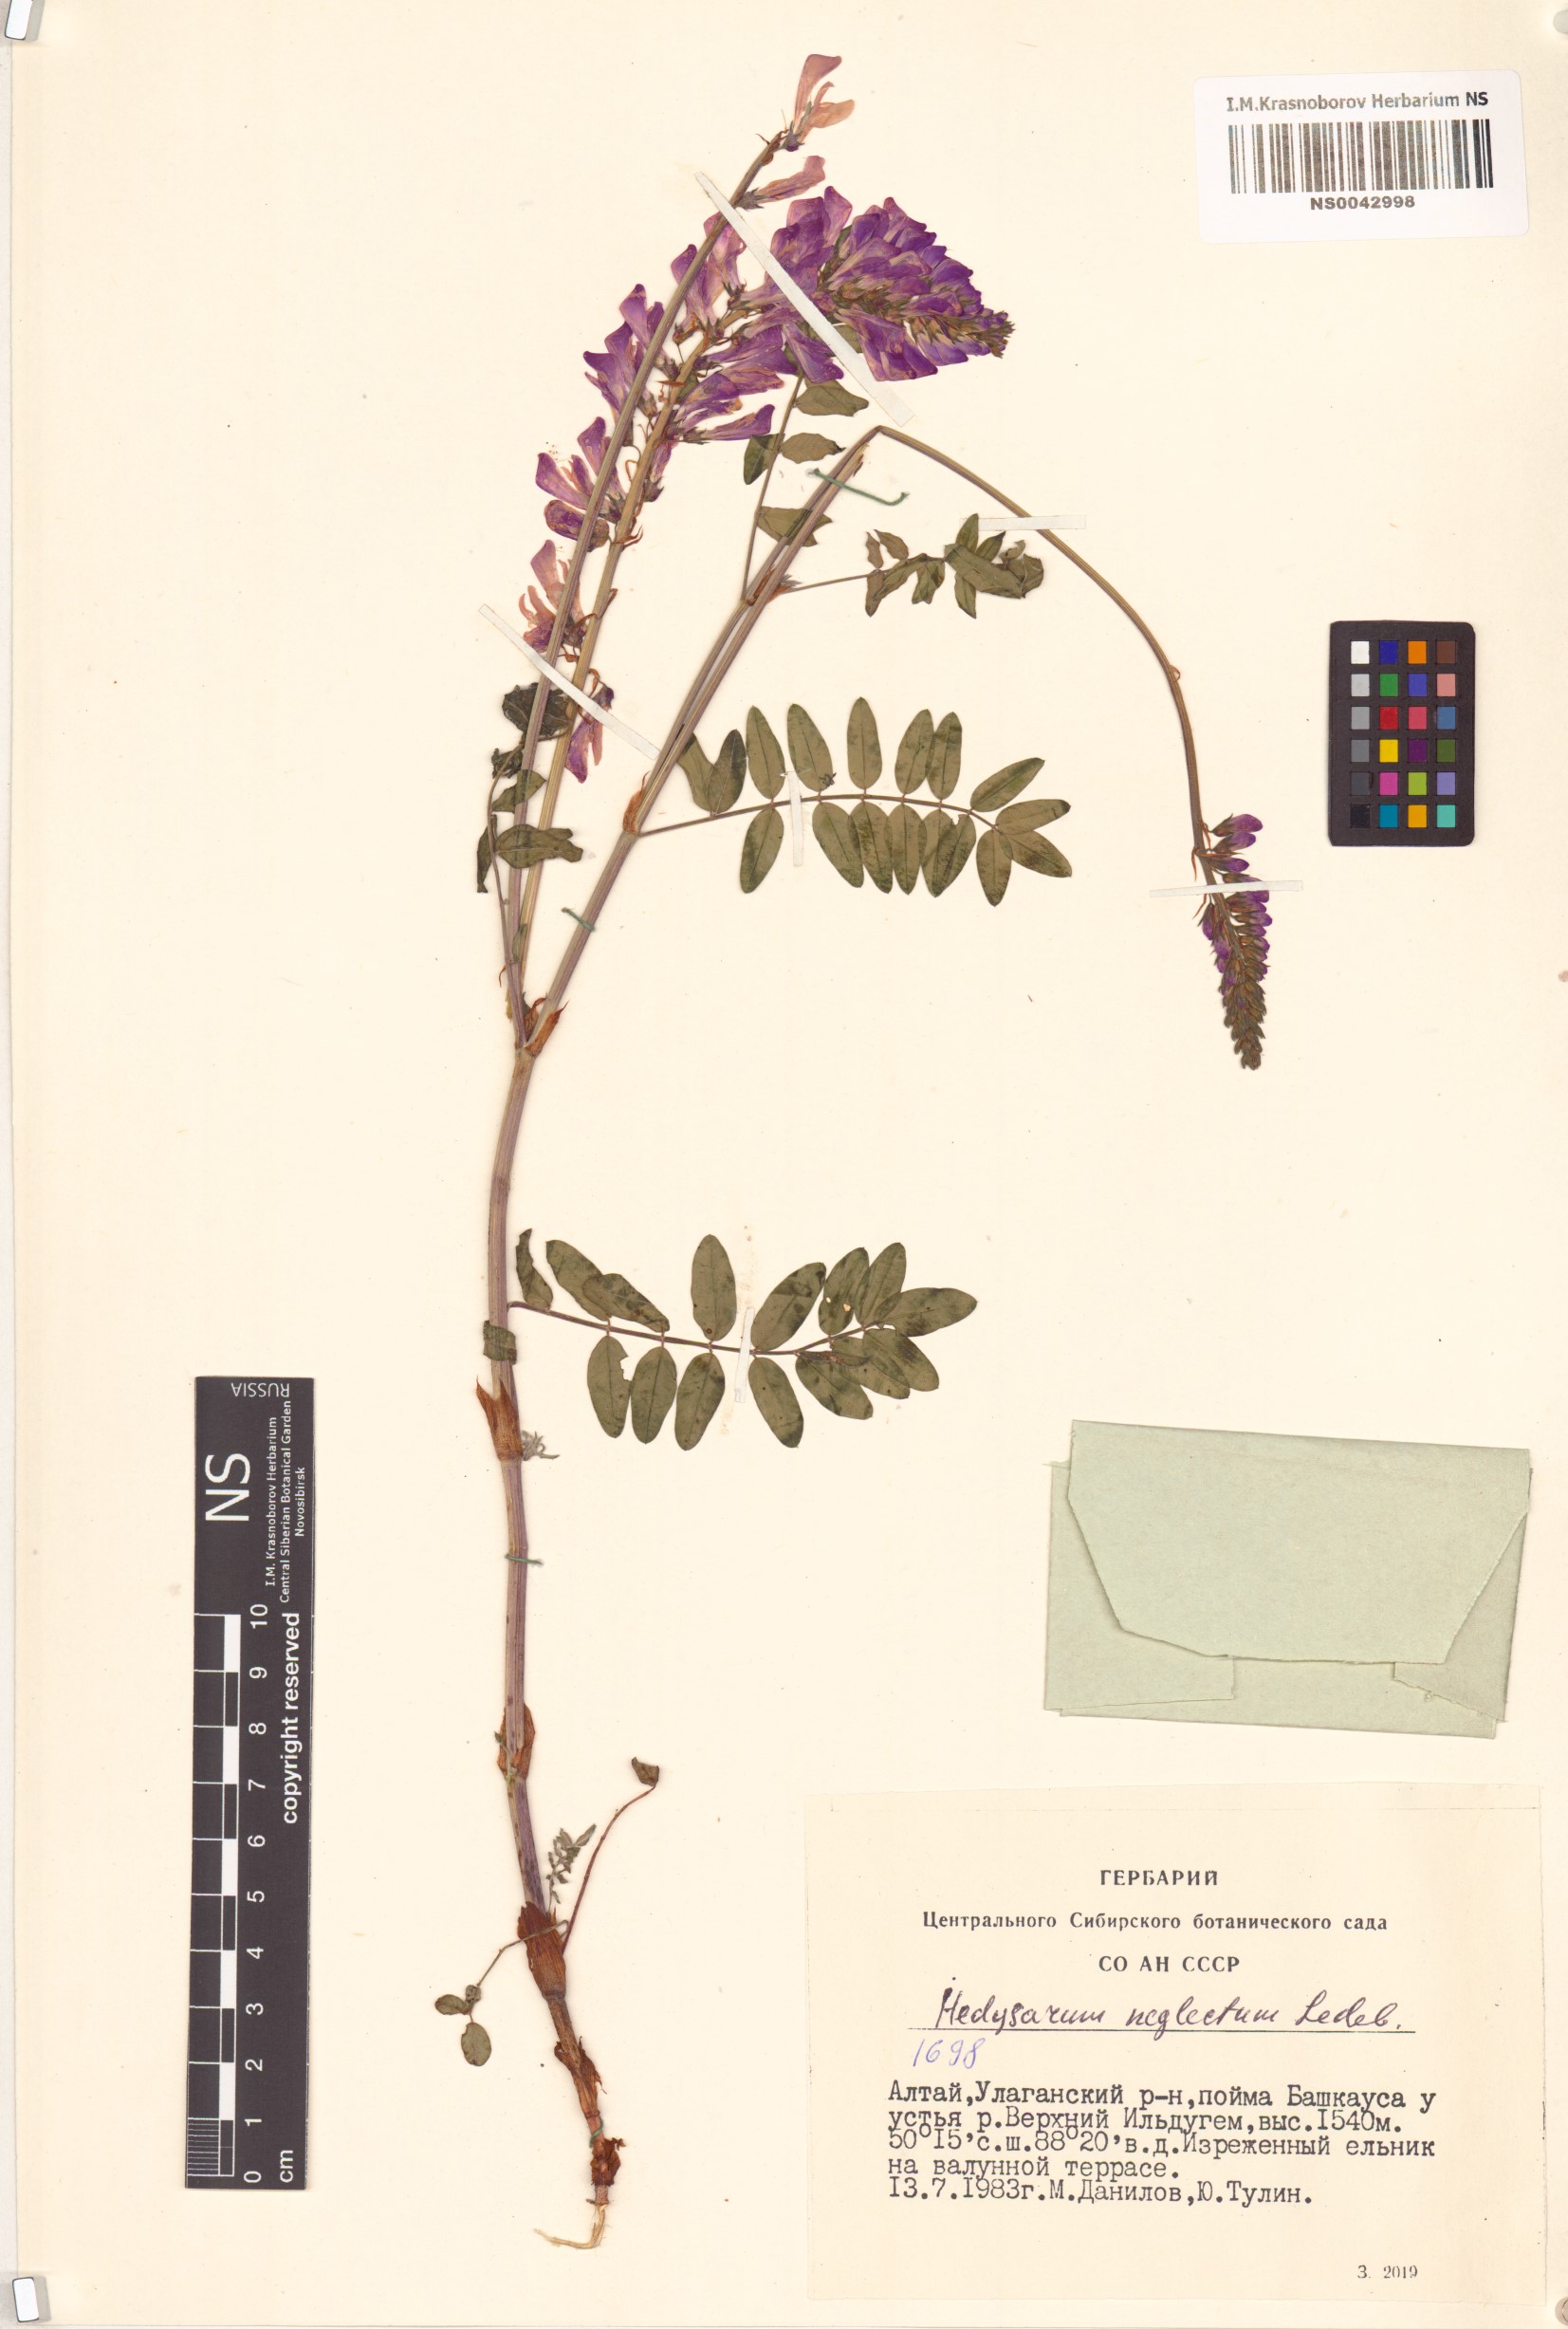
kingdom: Plantae
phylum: Tracheophyta
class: Magnoliopsida
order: Fabales
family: Fabaceae
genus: Hedysarum
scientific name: Hedysarum neglectum
